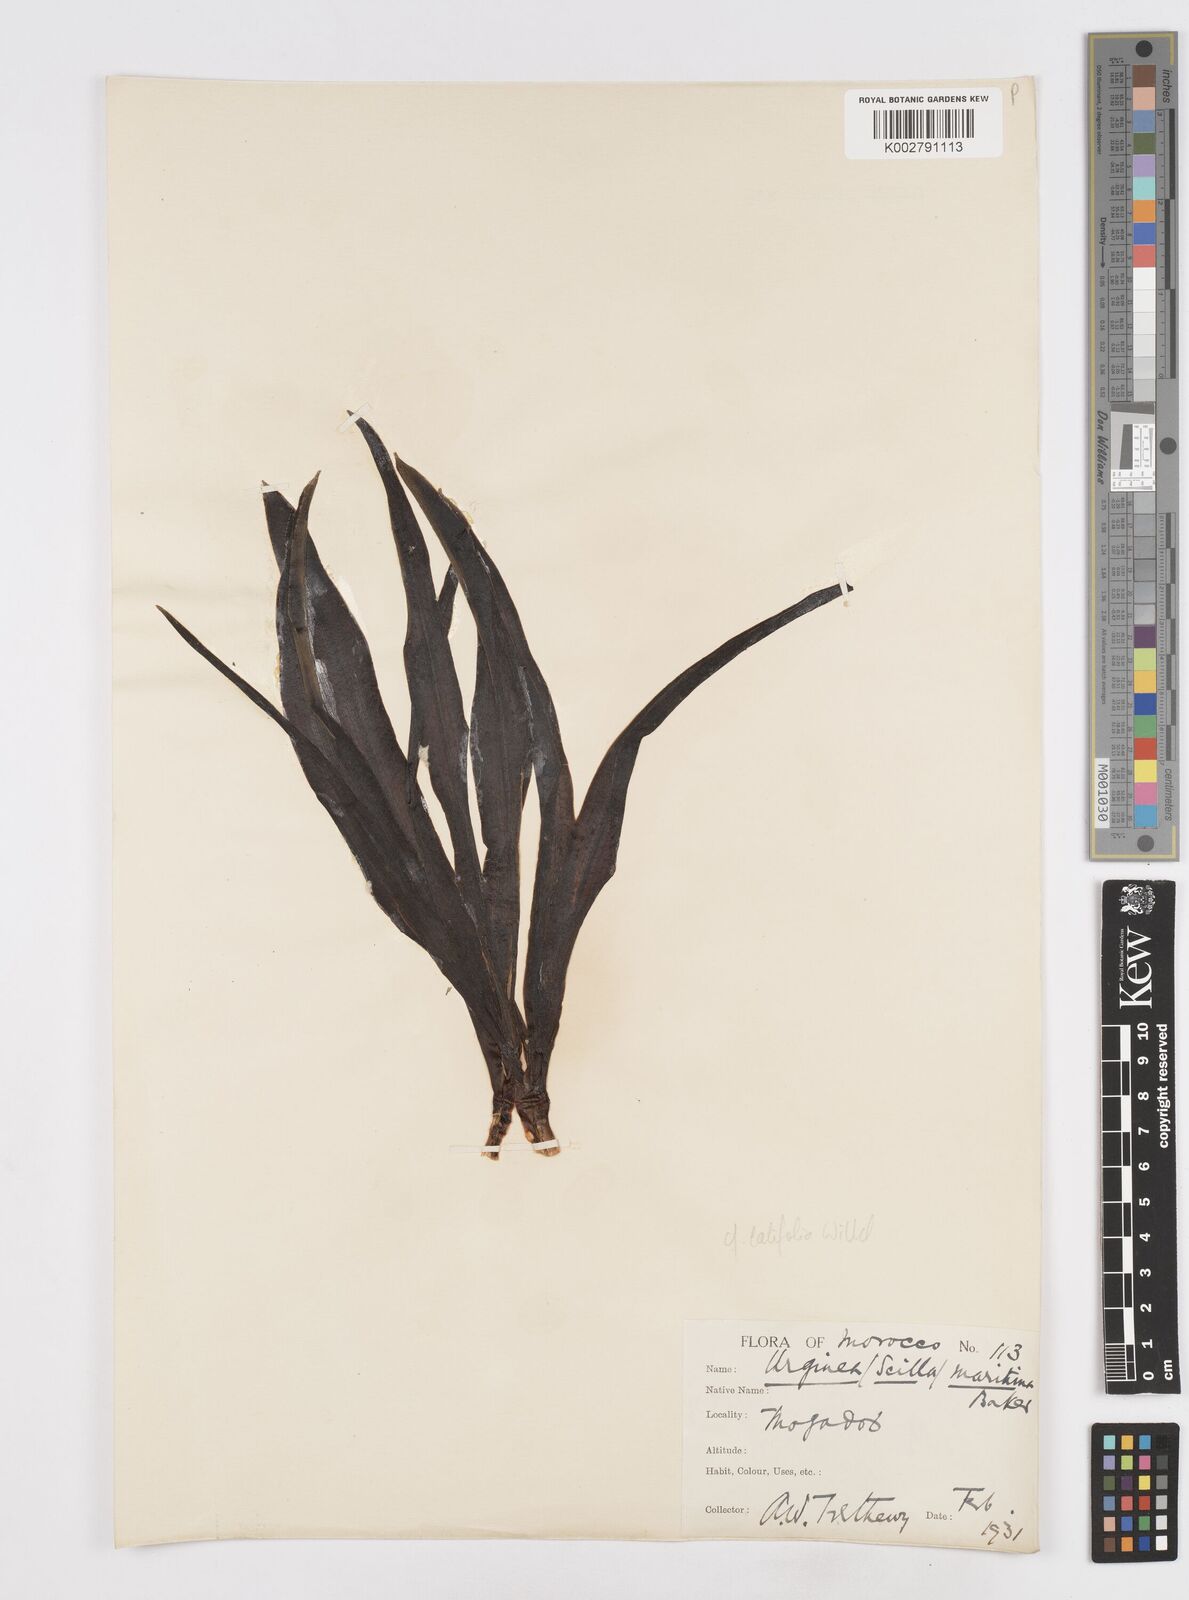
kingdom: Plantae
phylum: Tracheophyta
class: Liliopsida
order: Asparagales
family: Asparagaceae
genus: Scilla
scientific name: Scilla
